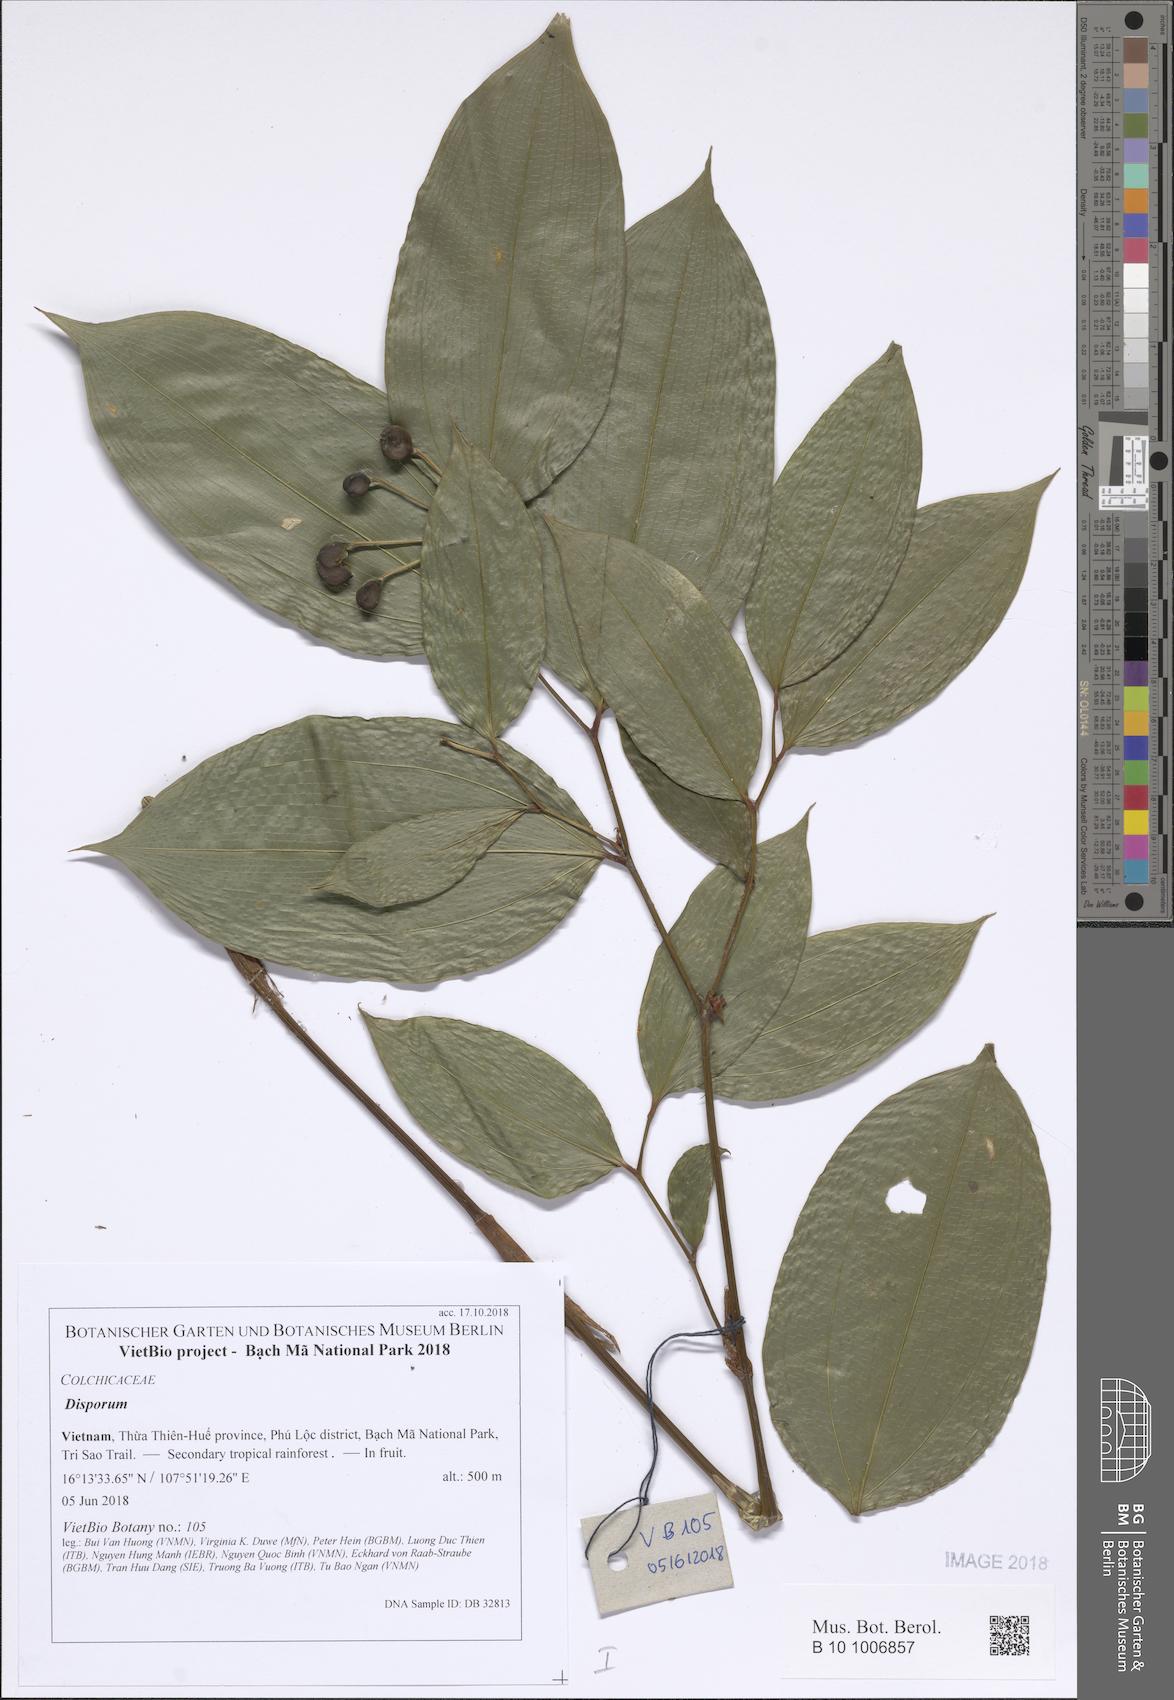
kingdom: Plantae
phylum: Tracheophyta
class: Liliopsida
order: Asparagales
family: Asparagaceae
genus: Disporum
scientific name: Disporum
